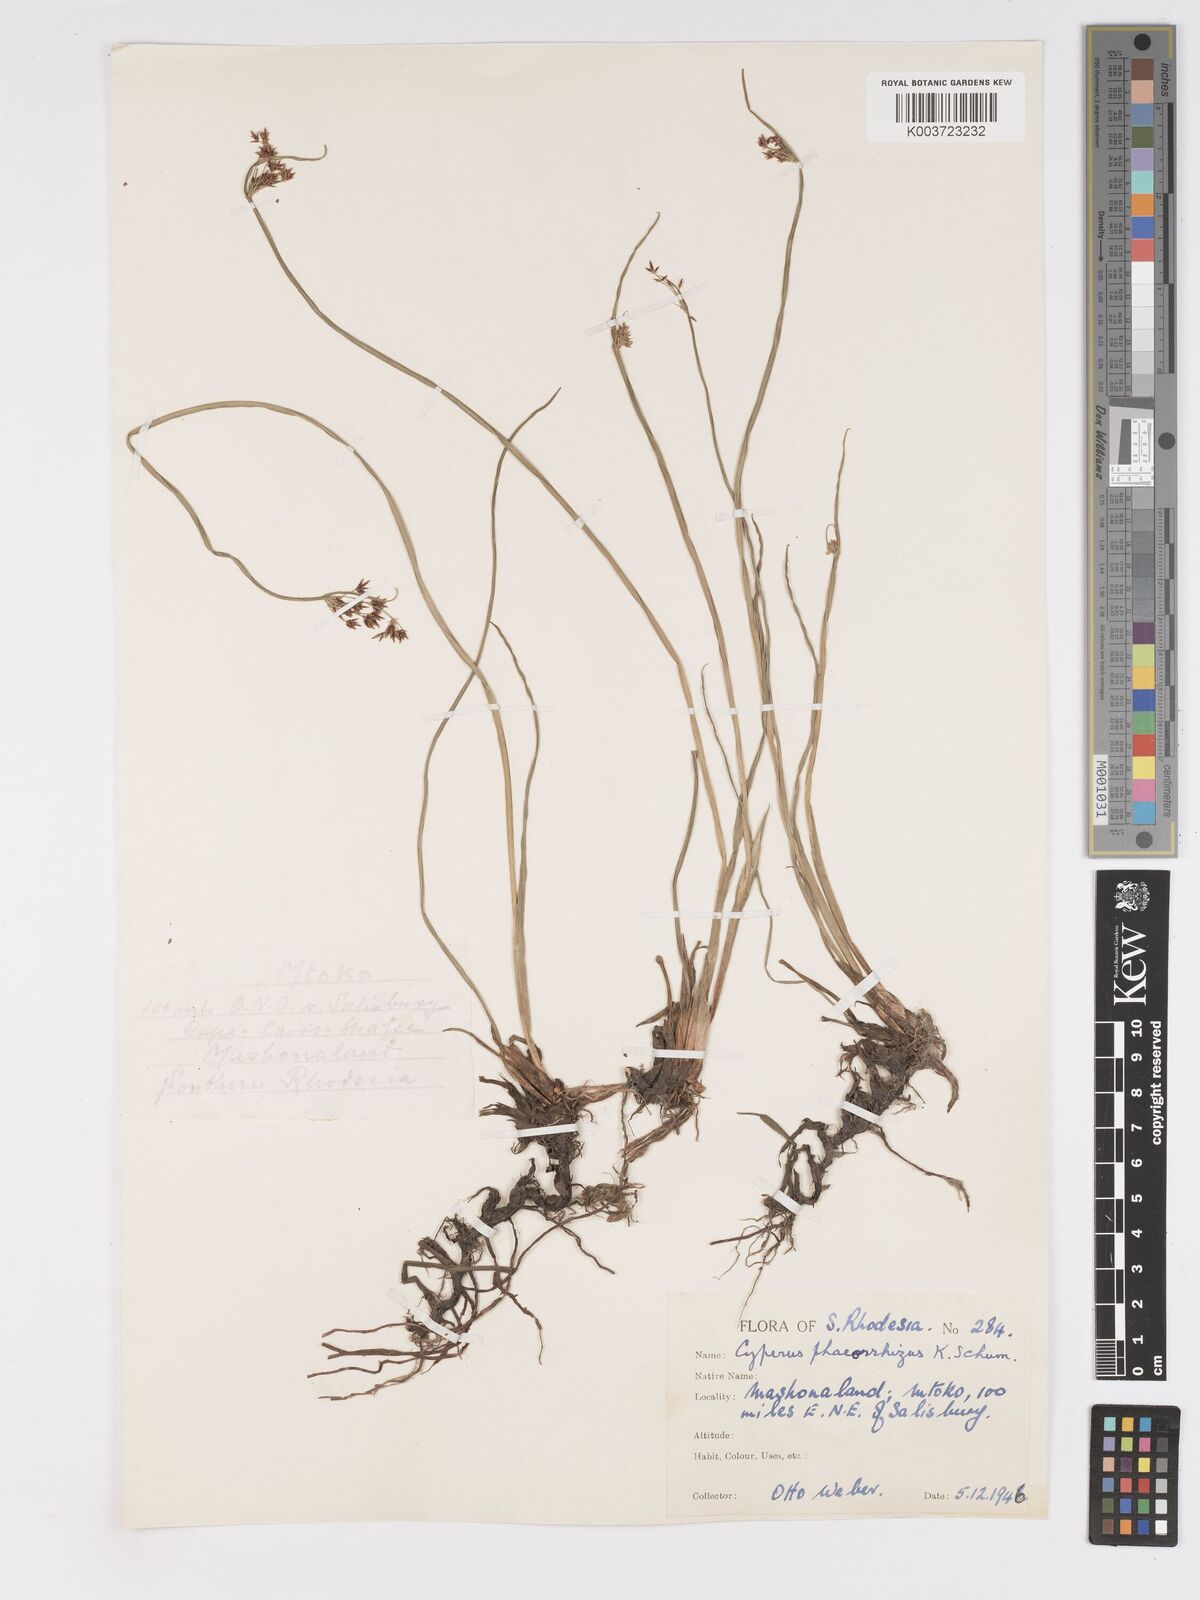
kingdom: Plantae
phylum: Tracheophyta
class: Liliopsida
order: Poales
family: Cyperaceae
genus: Cyperus
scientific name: Cyperus haspan
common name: Haspan flatsedge
